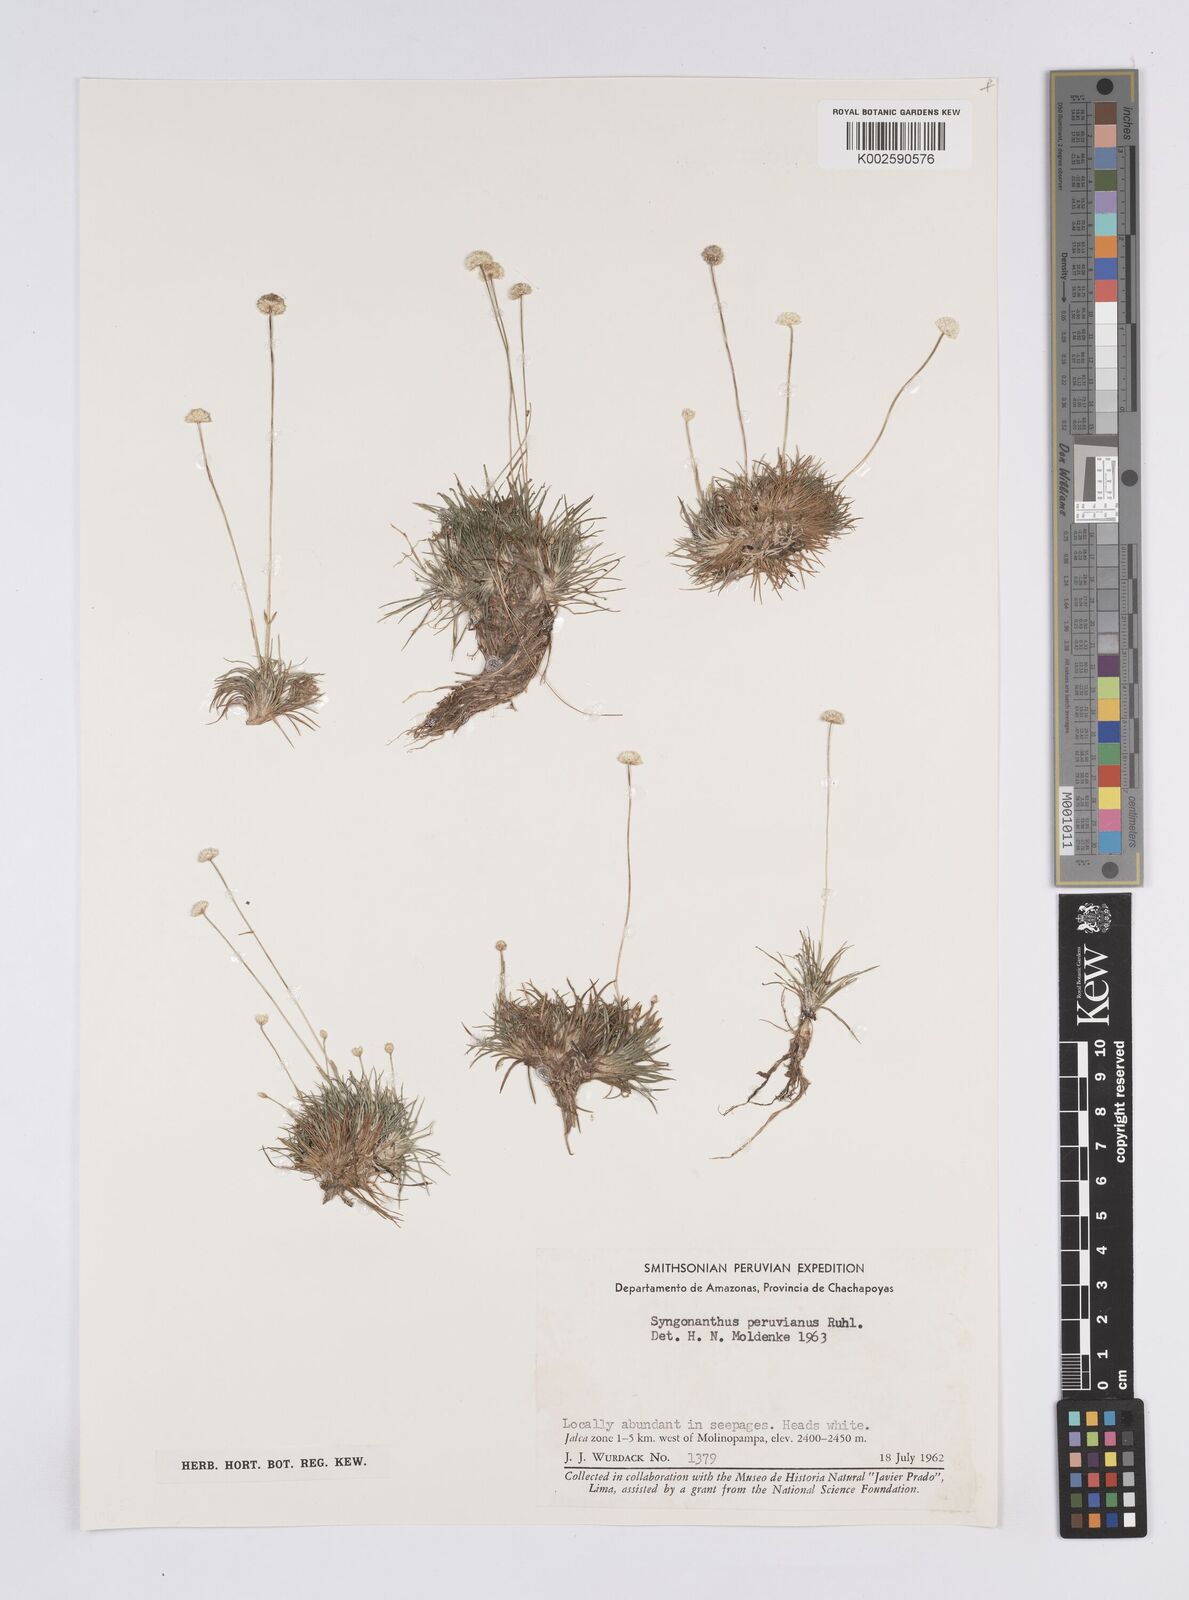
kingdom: Plantae
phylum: Tracheophyta
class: Liliopsida
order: Poales
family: Eriocaulaceae
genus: Syngonanthus
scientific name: Syngonanthus peruvianus
